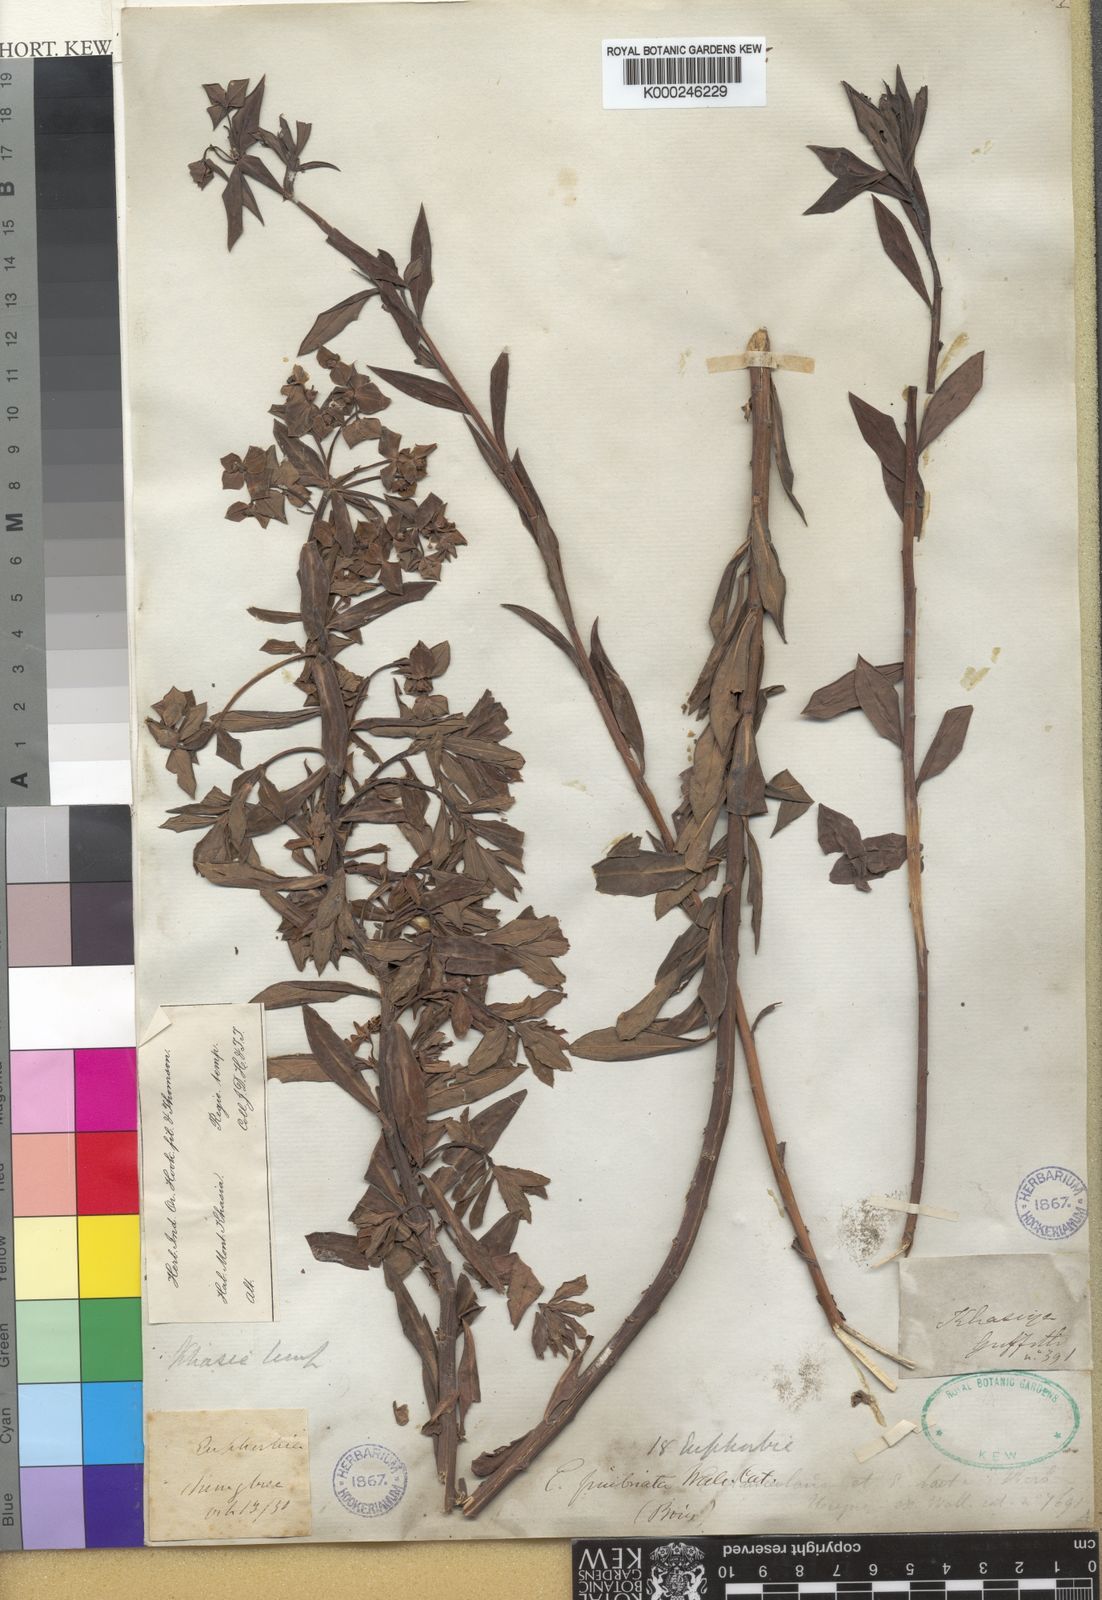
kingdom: Plantae
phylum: Tracheophyta
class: Magnoliopsida
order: Malpighiales
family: Euphorbiaceae
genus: Euphorbia
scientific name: Euphorbia khasyana
